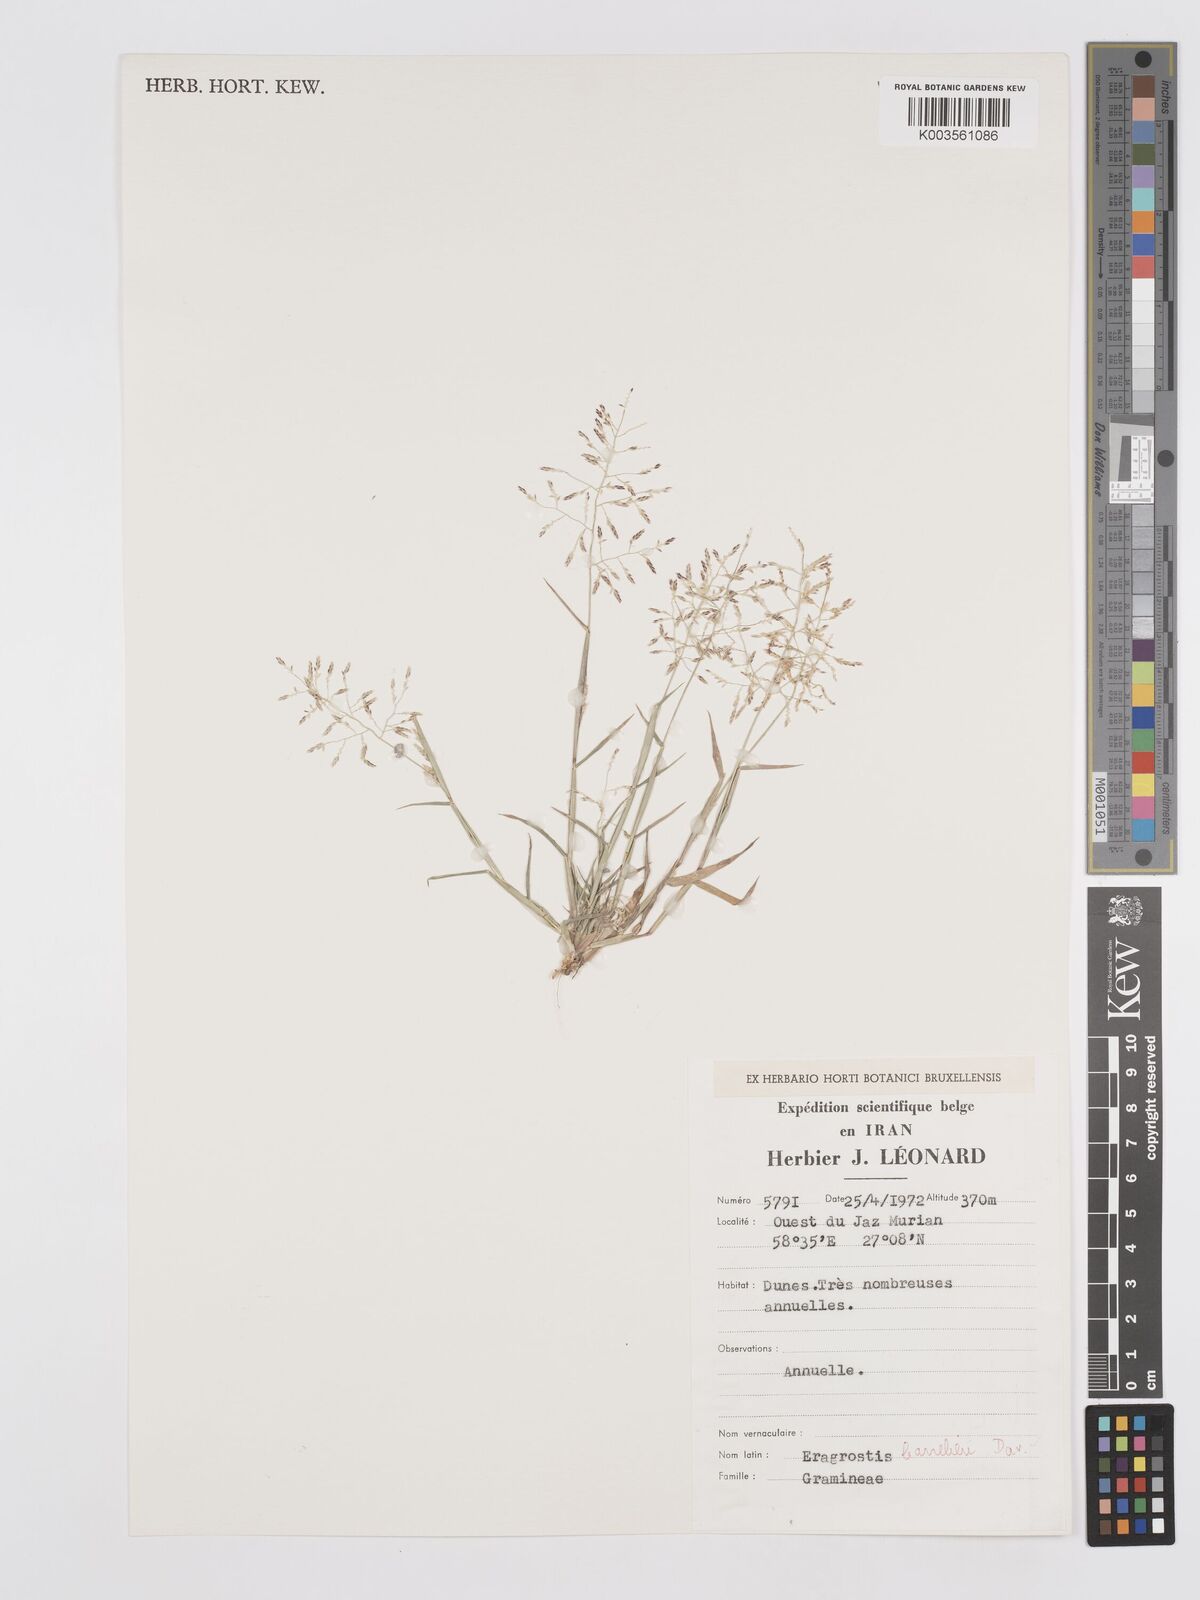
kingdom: Plantae
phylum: Tracheophyta
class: Liliopsida
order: Poales
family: Poaceae
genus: Eragrostis
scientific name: Eragrostis barrelieri
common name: Mediterranean lovegrass
